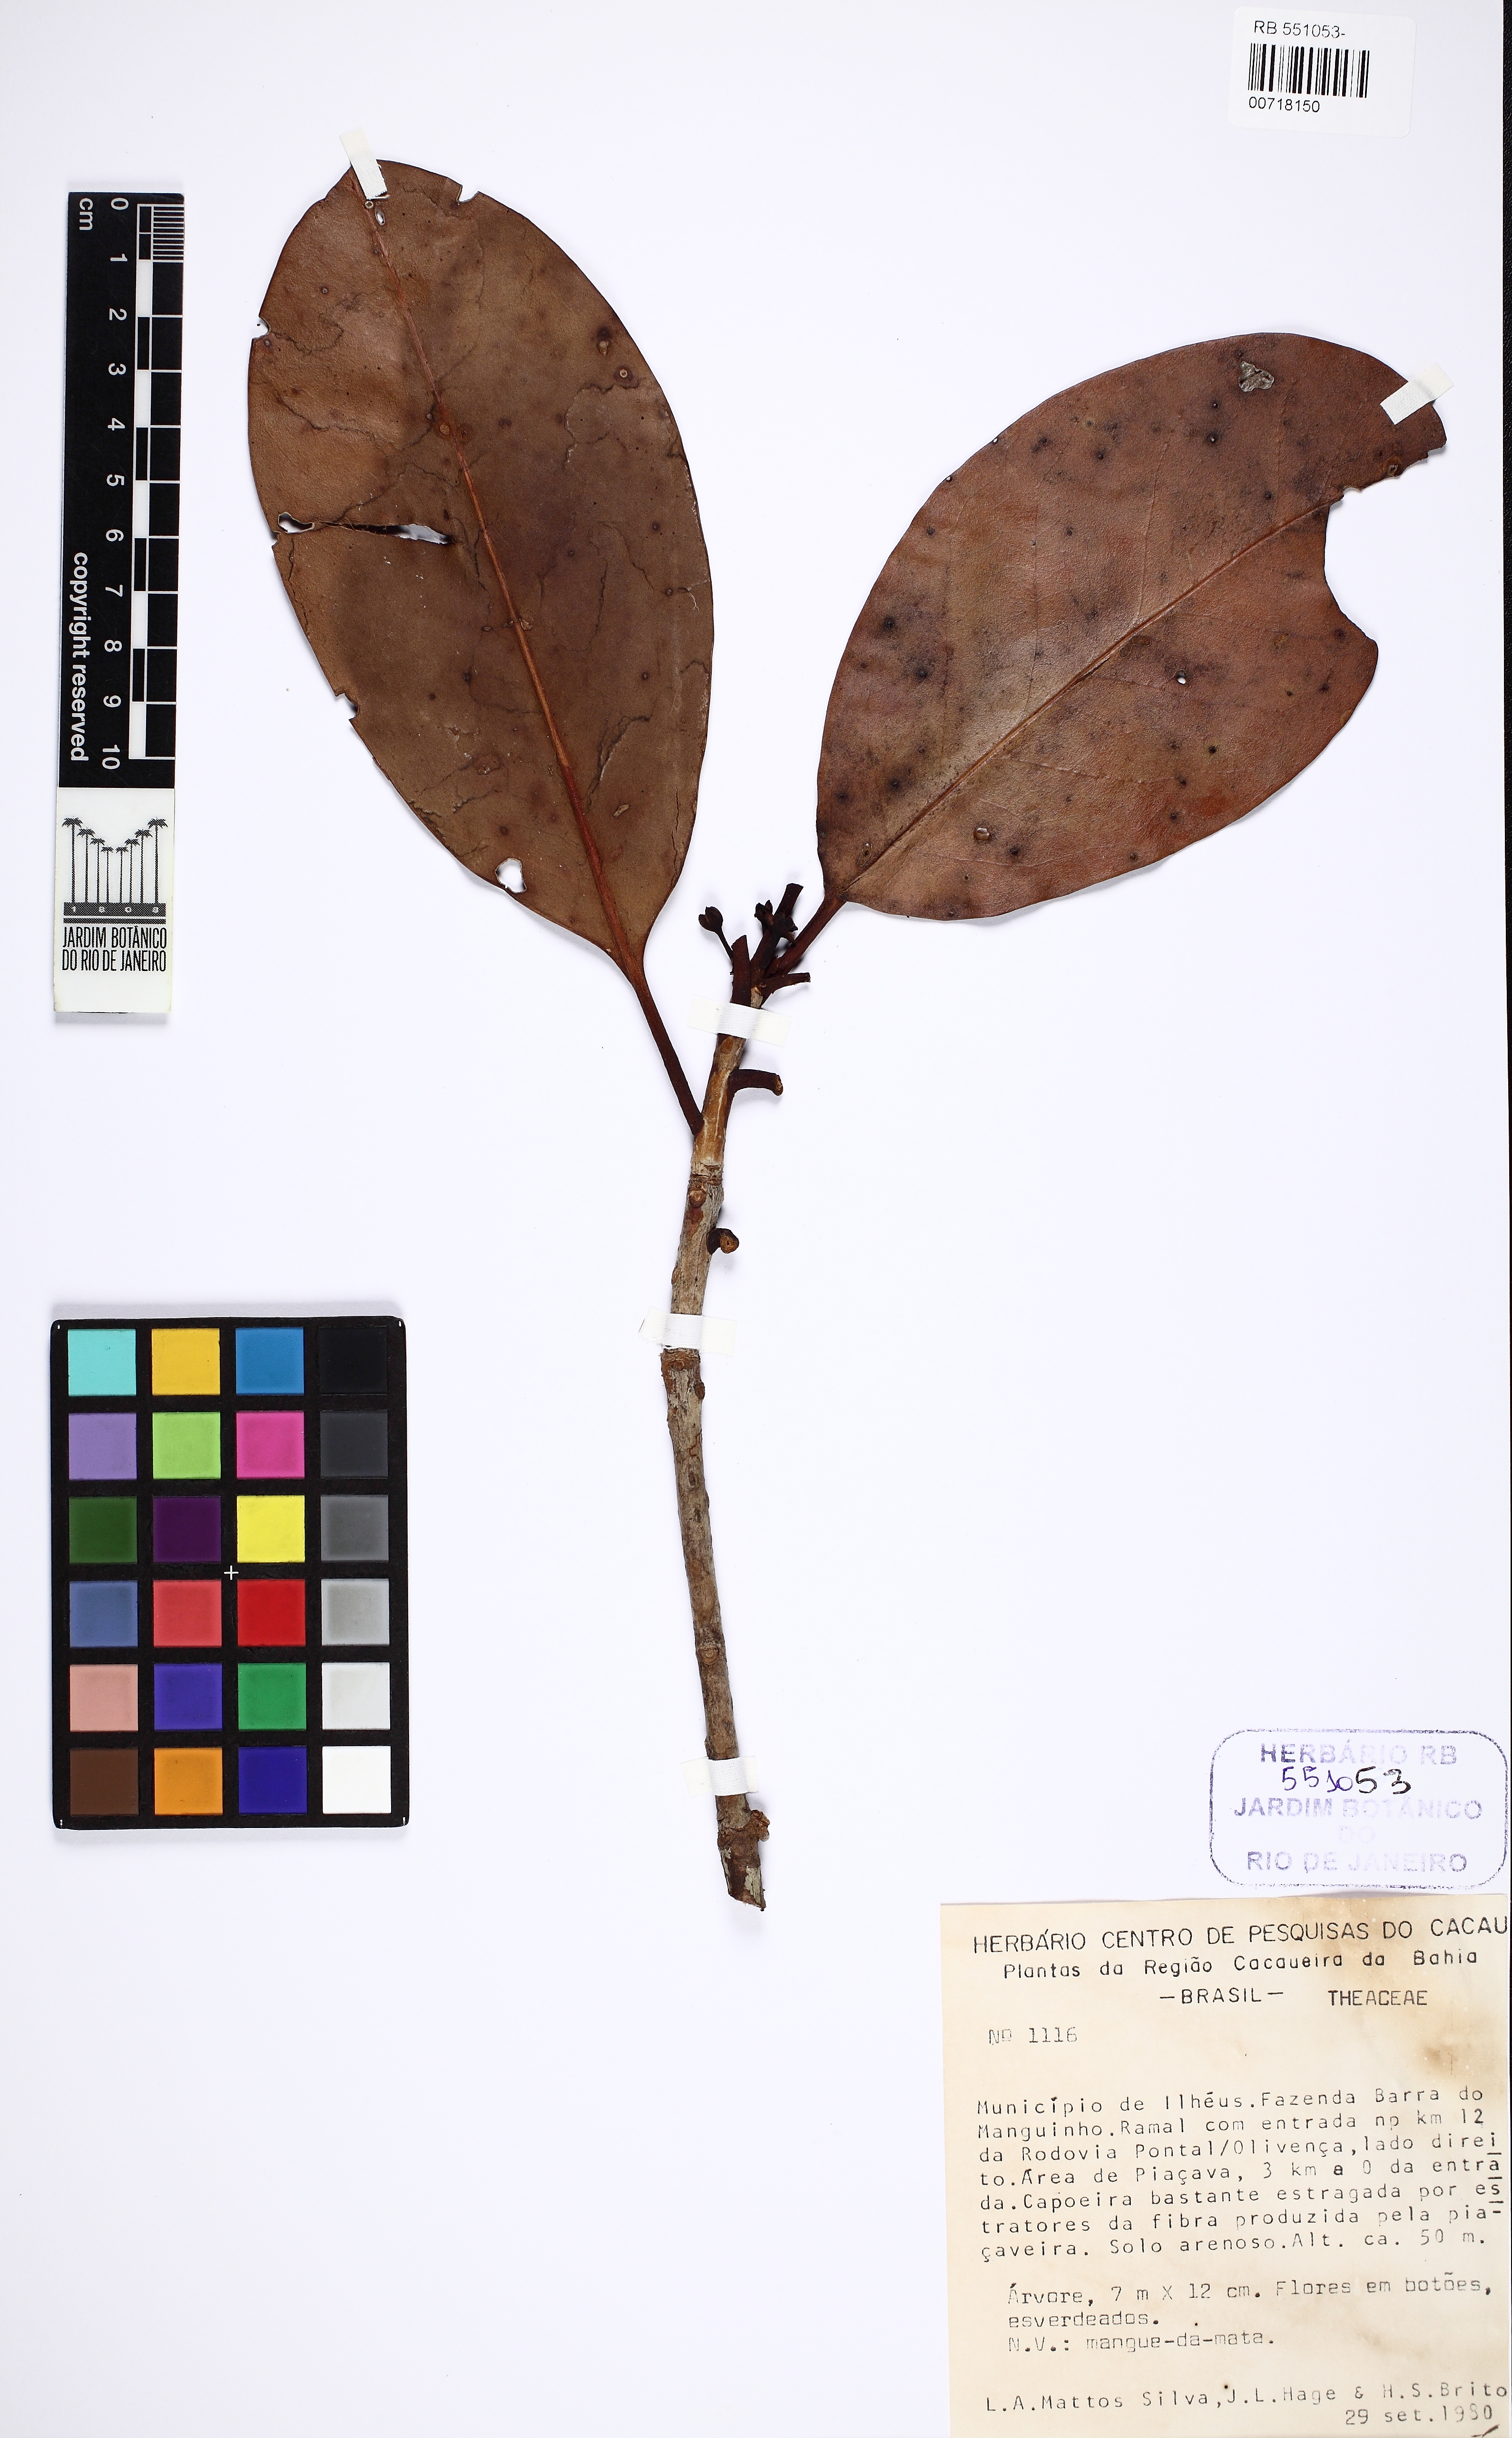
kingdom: Plantae
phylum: Tracheophyta
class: Magnoliopsida
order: Ericales
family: Pentaphylacaceae
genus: Ternstroemia
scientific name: Ternstroemia brasiliensis
